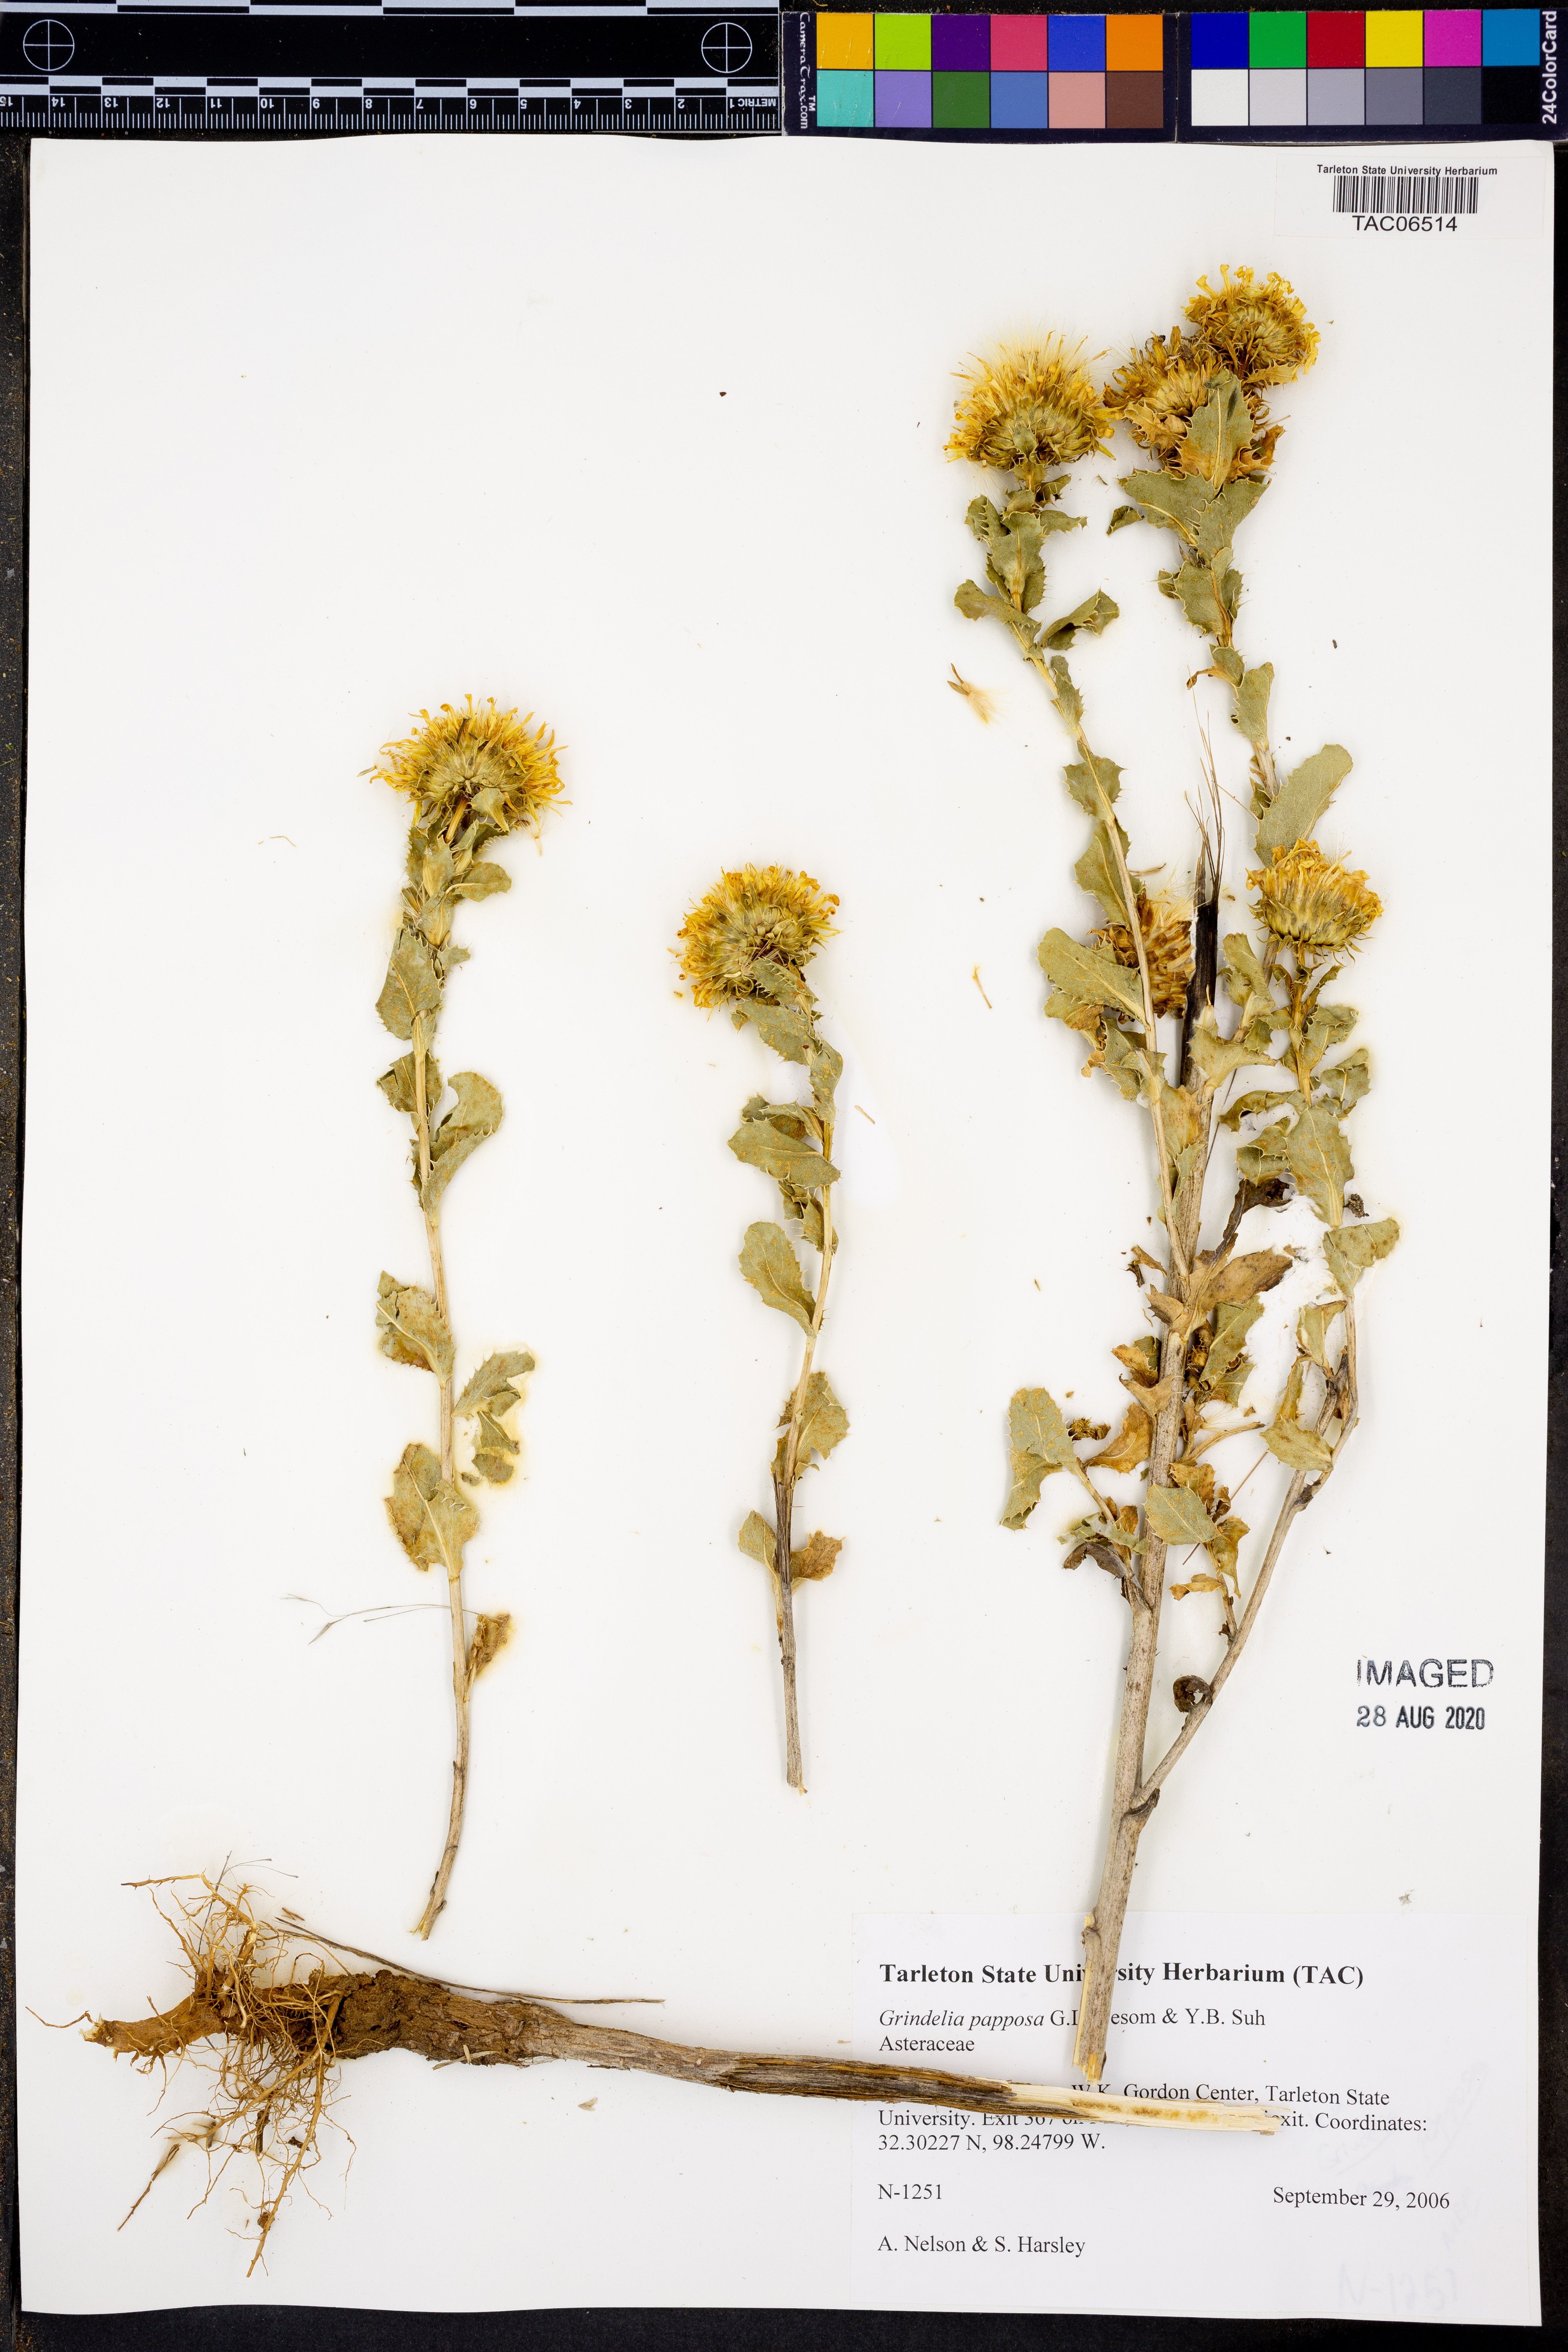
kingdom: Plantae
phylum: Tracheophyta
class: Magnoliopsida
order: Asterales
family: Asteraceae
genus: Grindelia
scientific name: Grindelia ciliata
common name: Goldenweed
